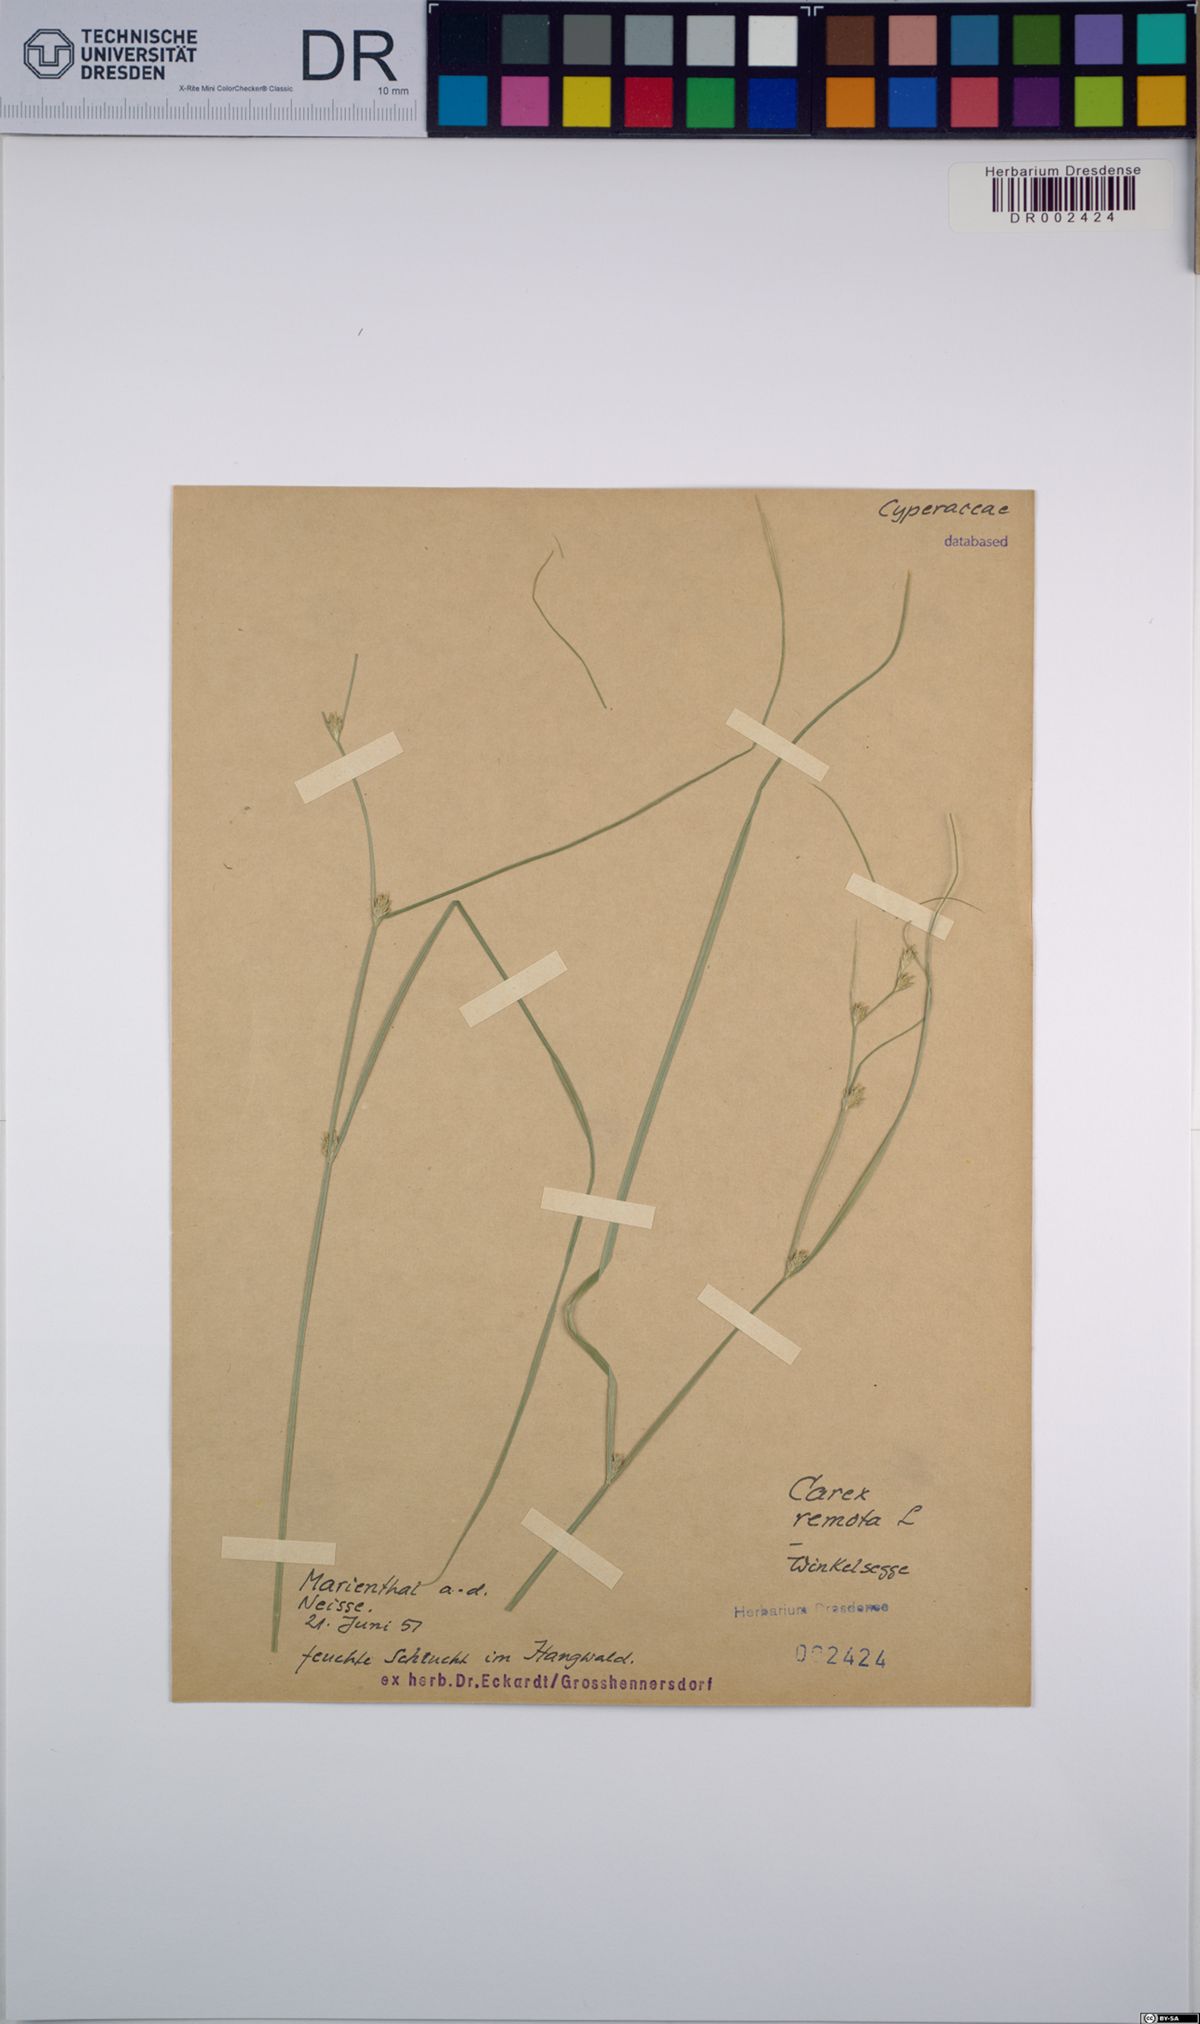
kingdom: Plantae
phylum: Tracheophyta
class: Liliopsida
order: Poales
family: Cyperaceae
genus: Carex
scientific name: Carex remota
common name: Remote sedge
